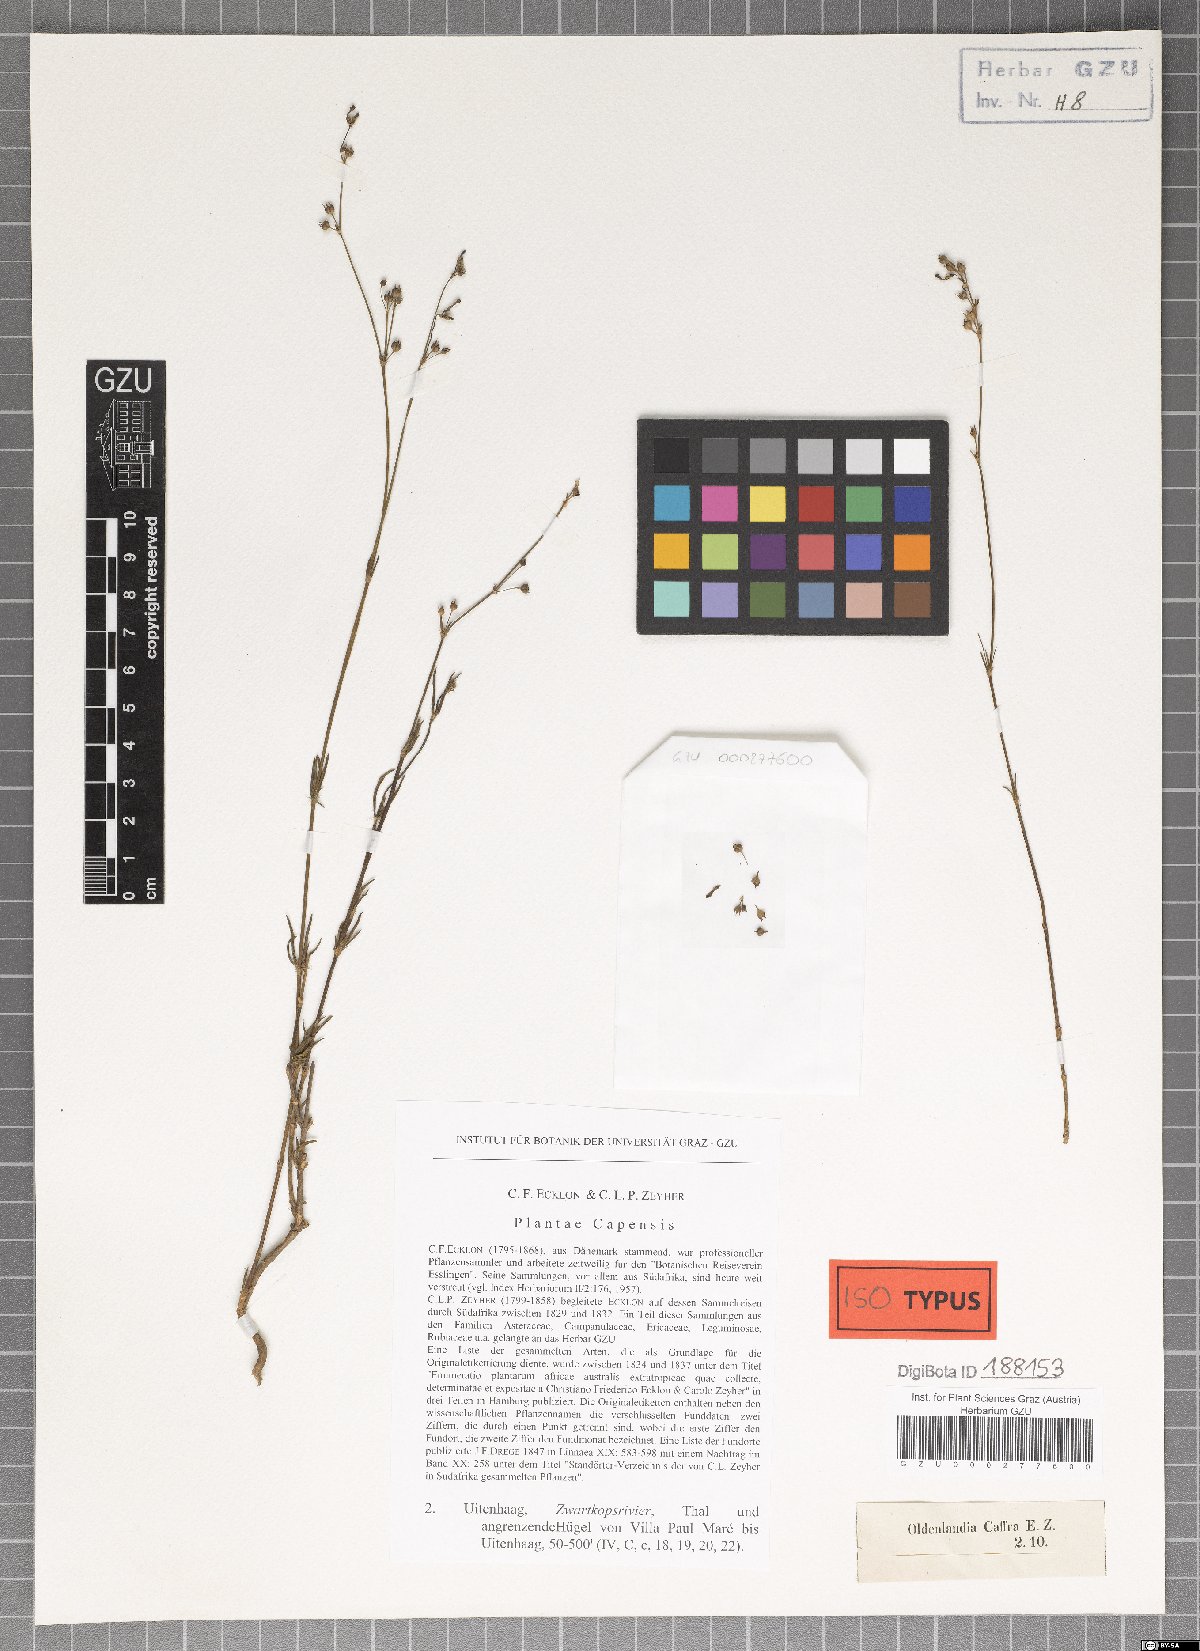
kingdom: Plantae
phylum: Tracheophyta
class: Magnoliopsida
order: Gentianales
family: Rubiaceae
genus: Cordylostigma
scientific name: Cordylostigma virgatum
